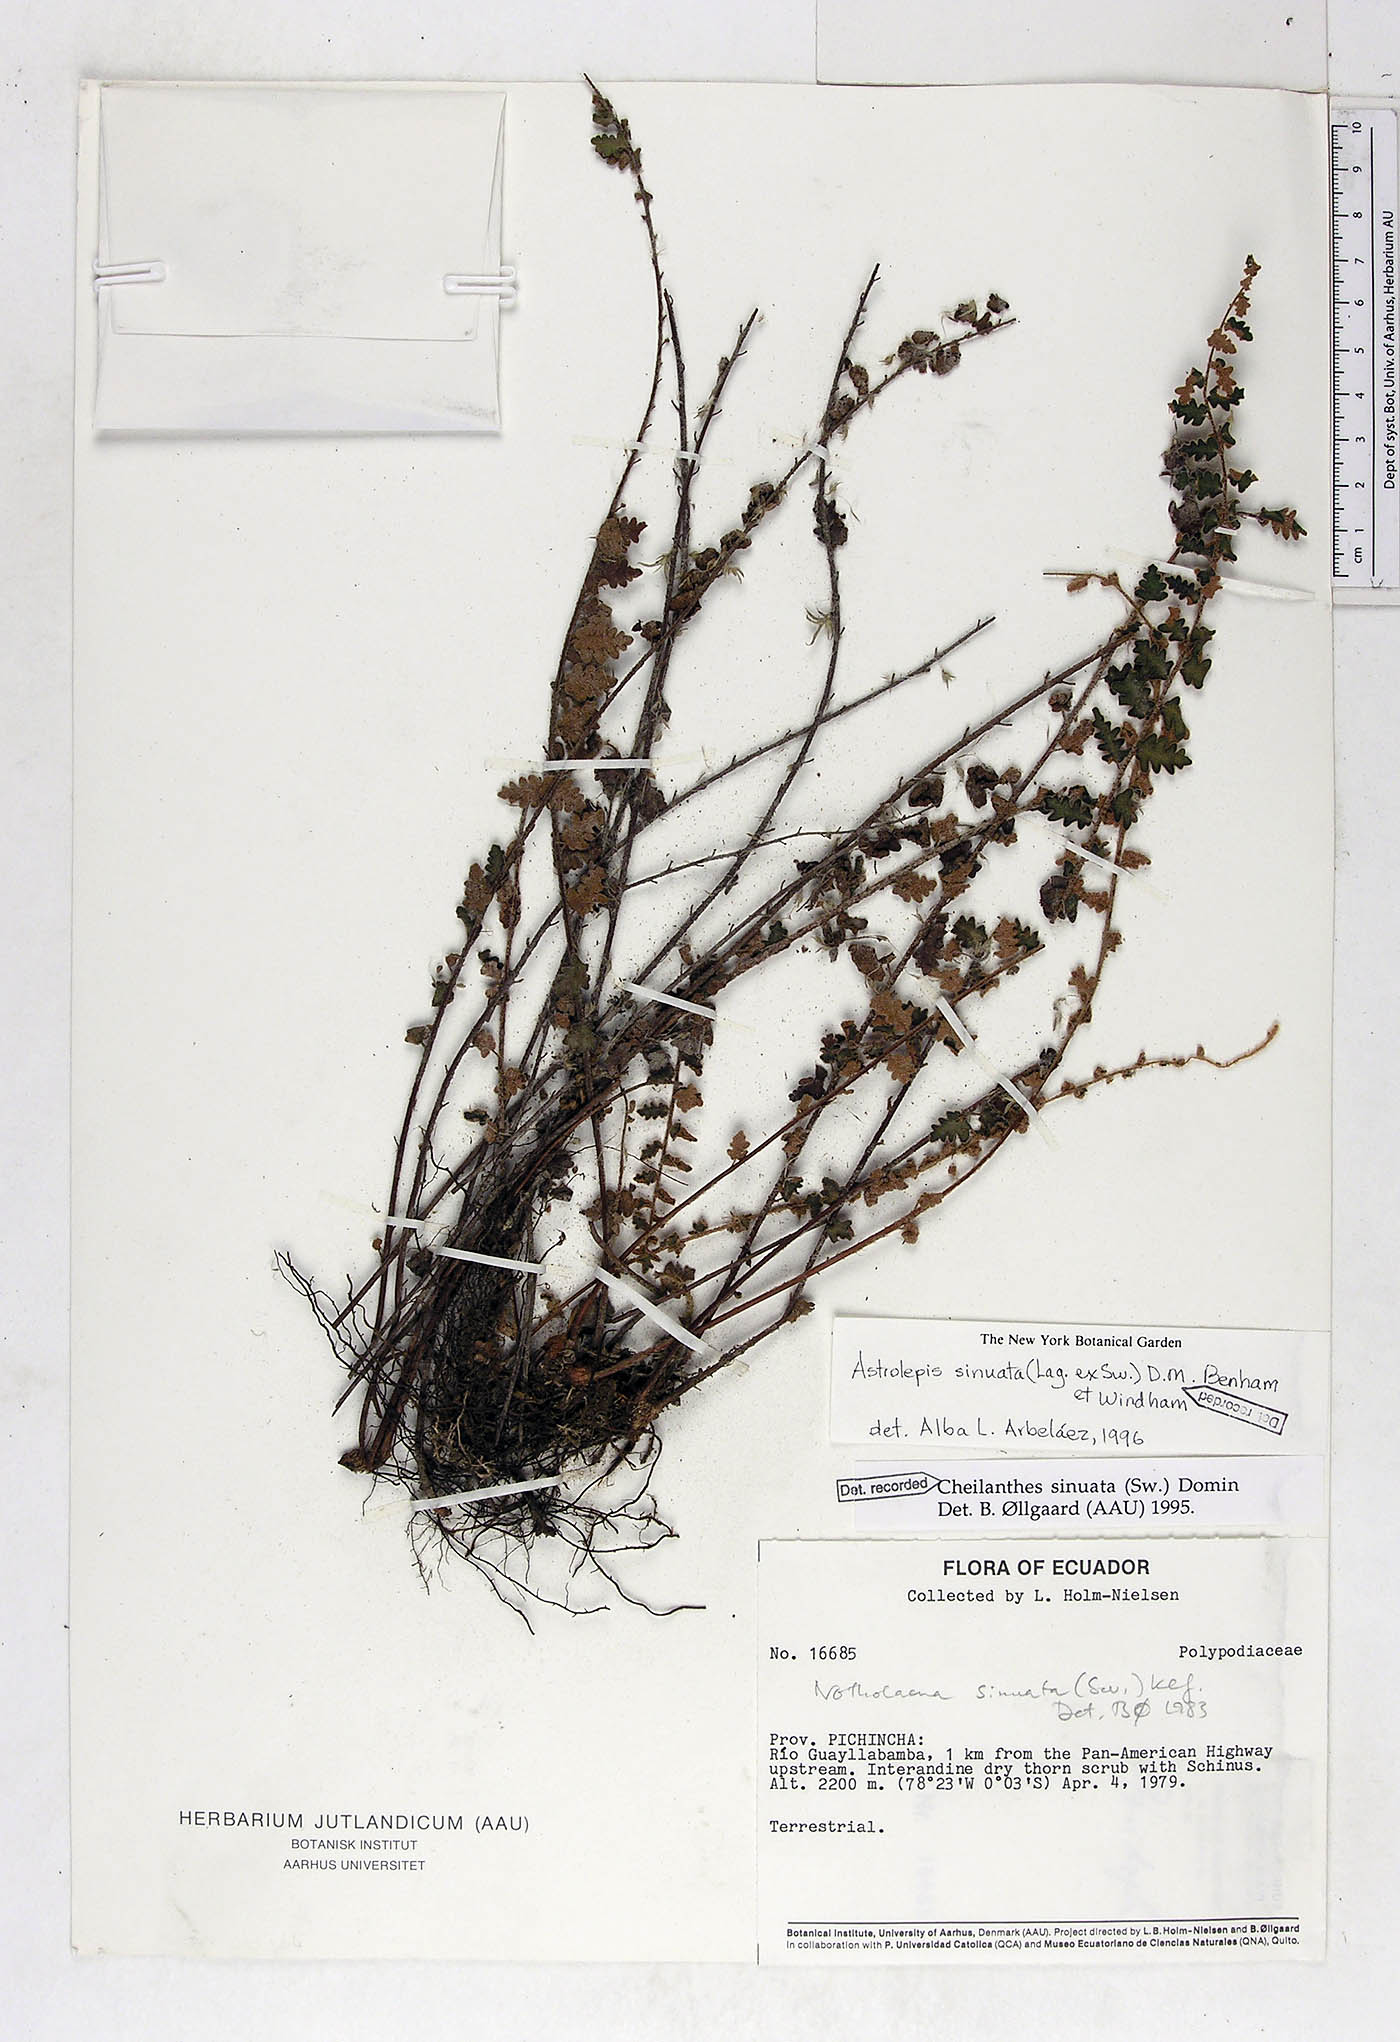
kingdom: Plantae
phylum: Tracheophyta
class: Polypodiopsida
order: Polypodiales
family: Pteridaceae
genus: Astrolepis
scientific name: Astrolepis sinuata
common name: Wavy scaly cloakfern
